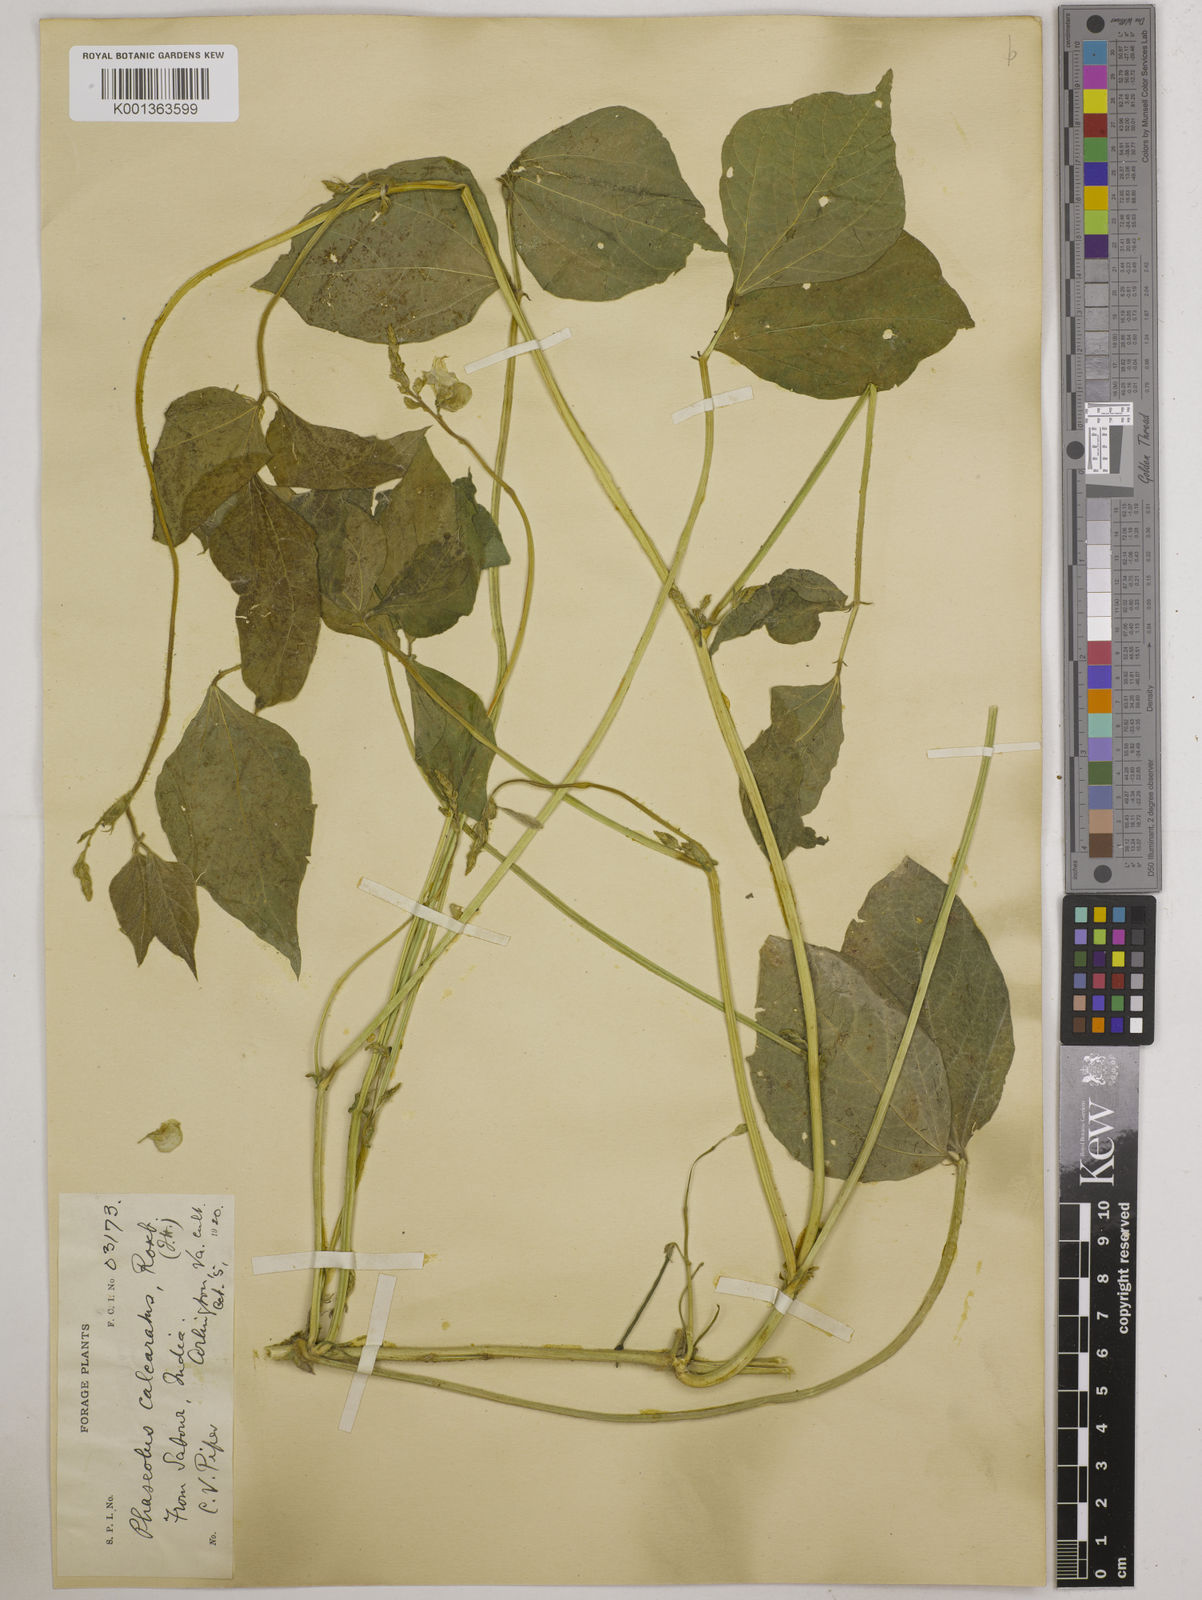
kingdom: Plantae
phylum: Tracheophyta
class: Magnoliopsida
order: Fabales
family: Fabaceae
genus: Vigna
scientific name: Vigna umbellata
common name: Oriental-bean
